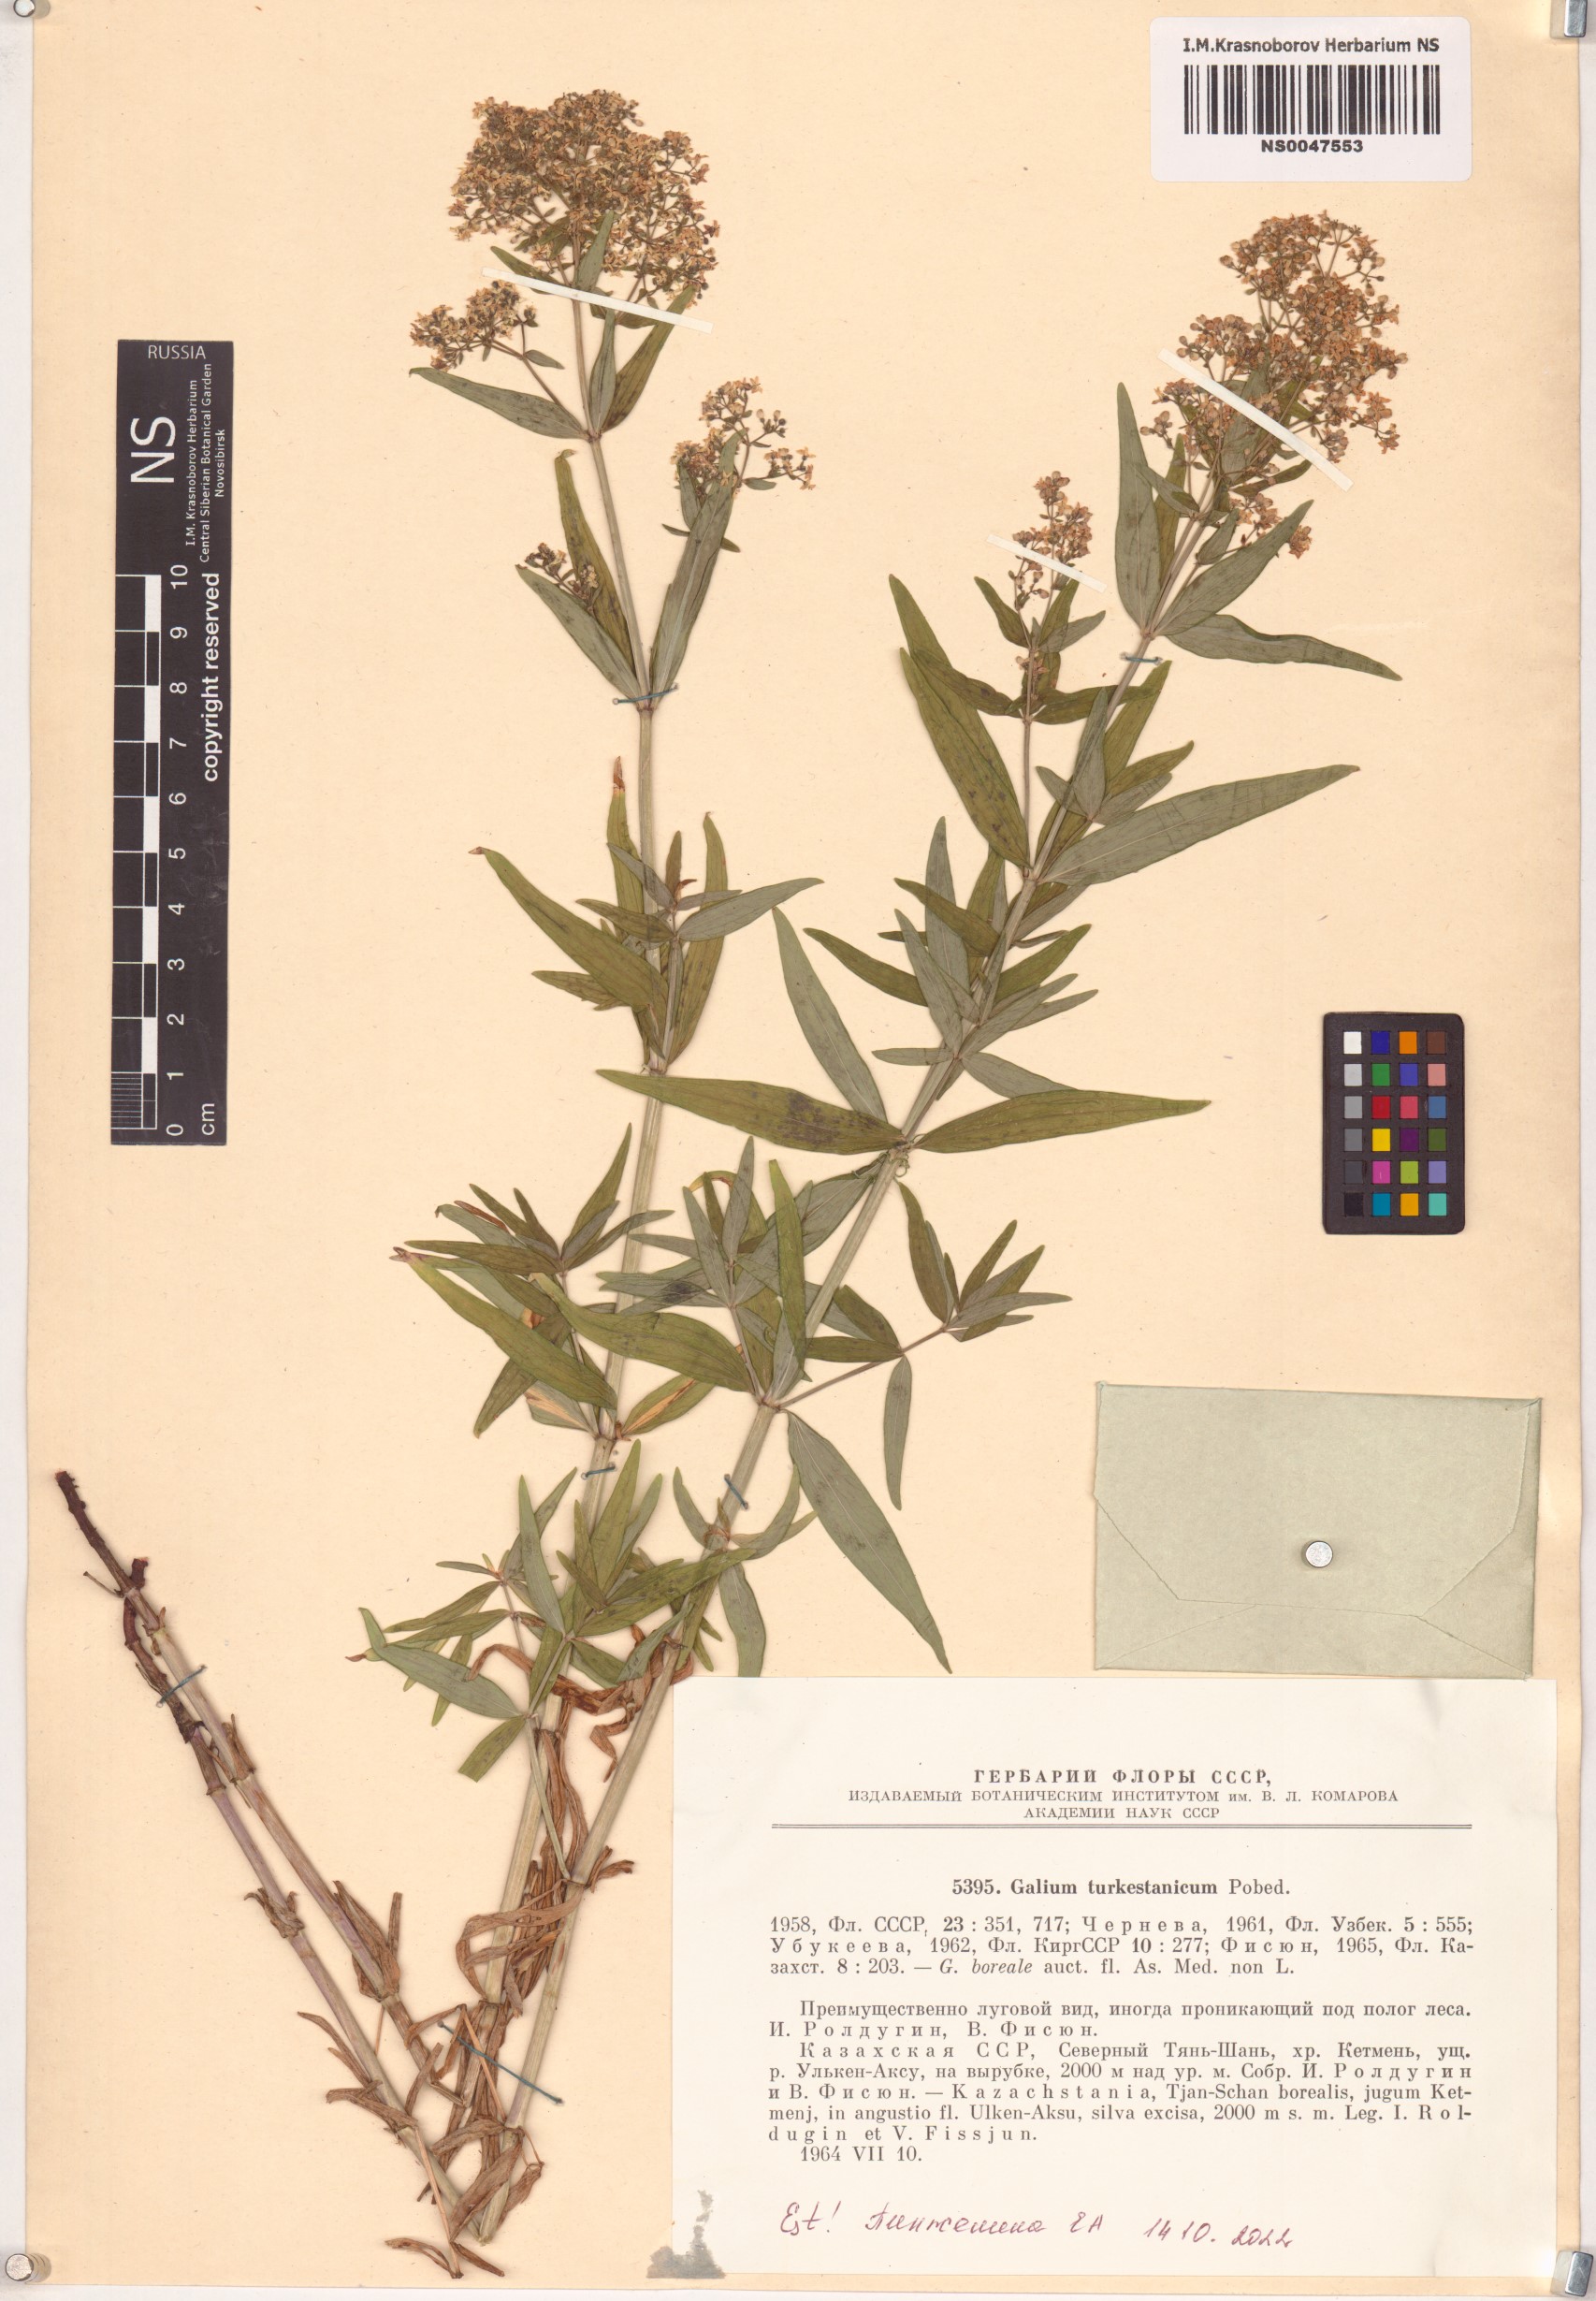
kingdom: Plantae
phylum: Tracheophyta
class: Magnoliopsida
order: Gentianales
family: Rubiaceae
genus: Galium
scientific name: Galium turkestanicum
